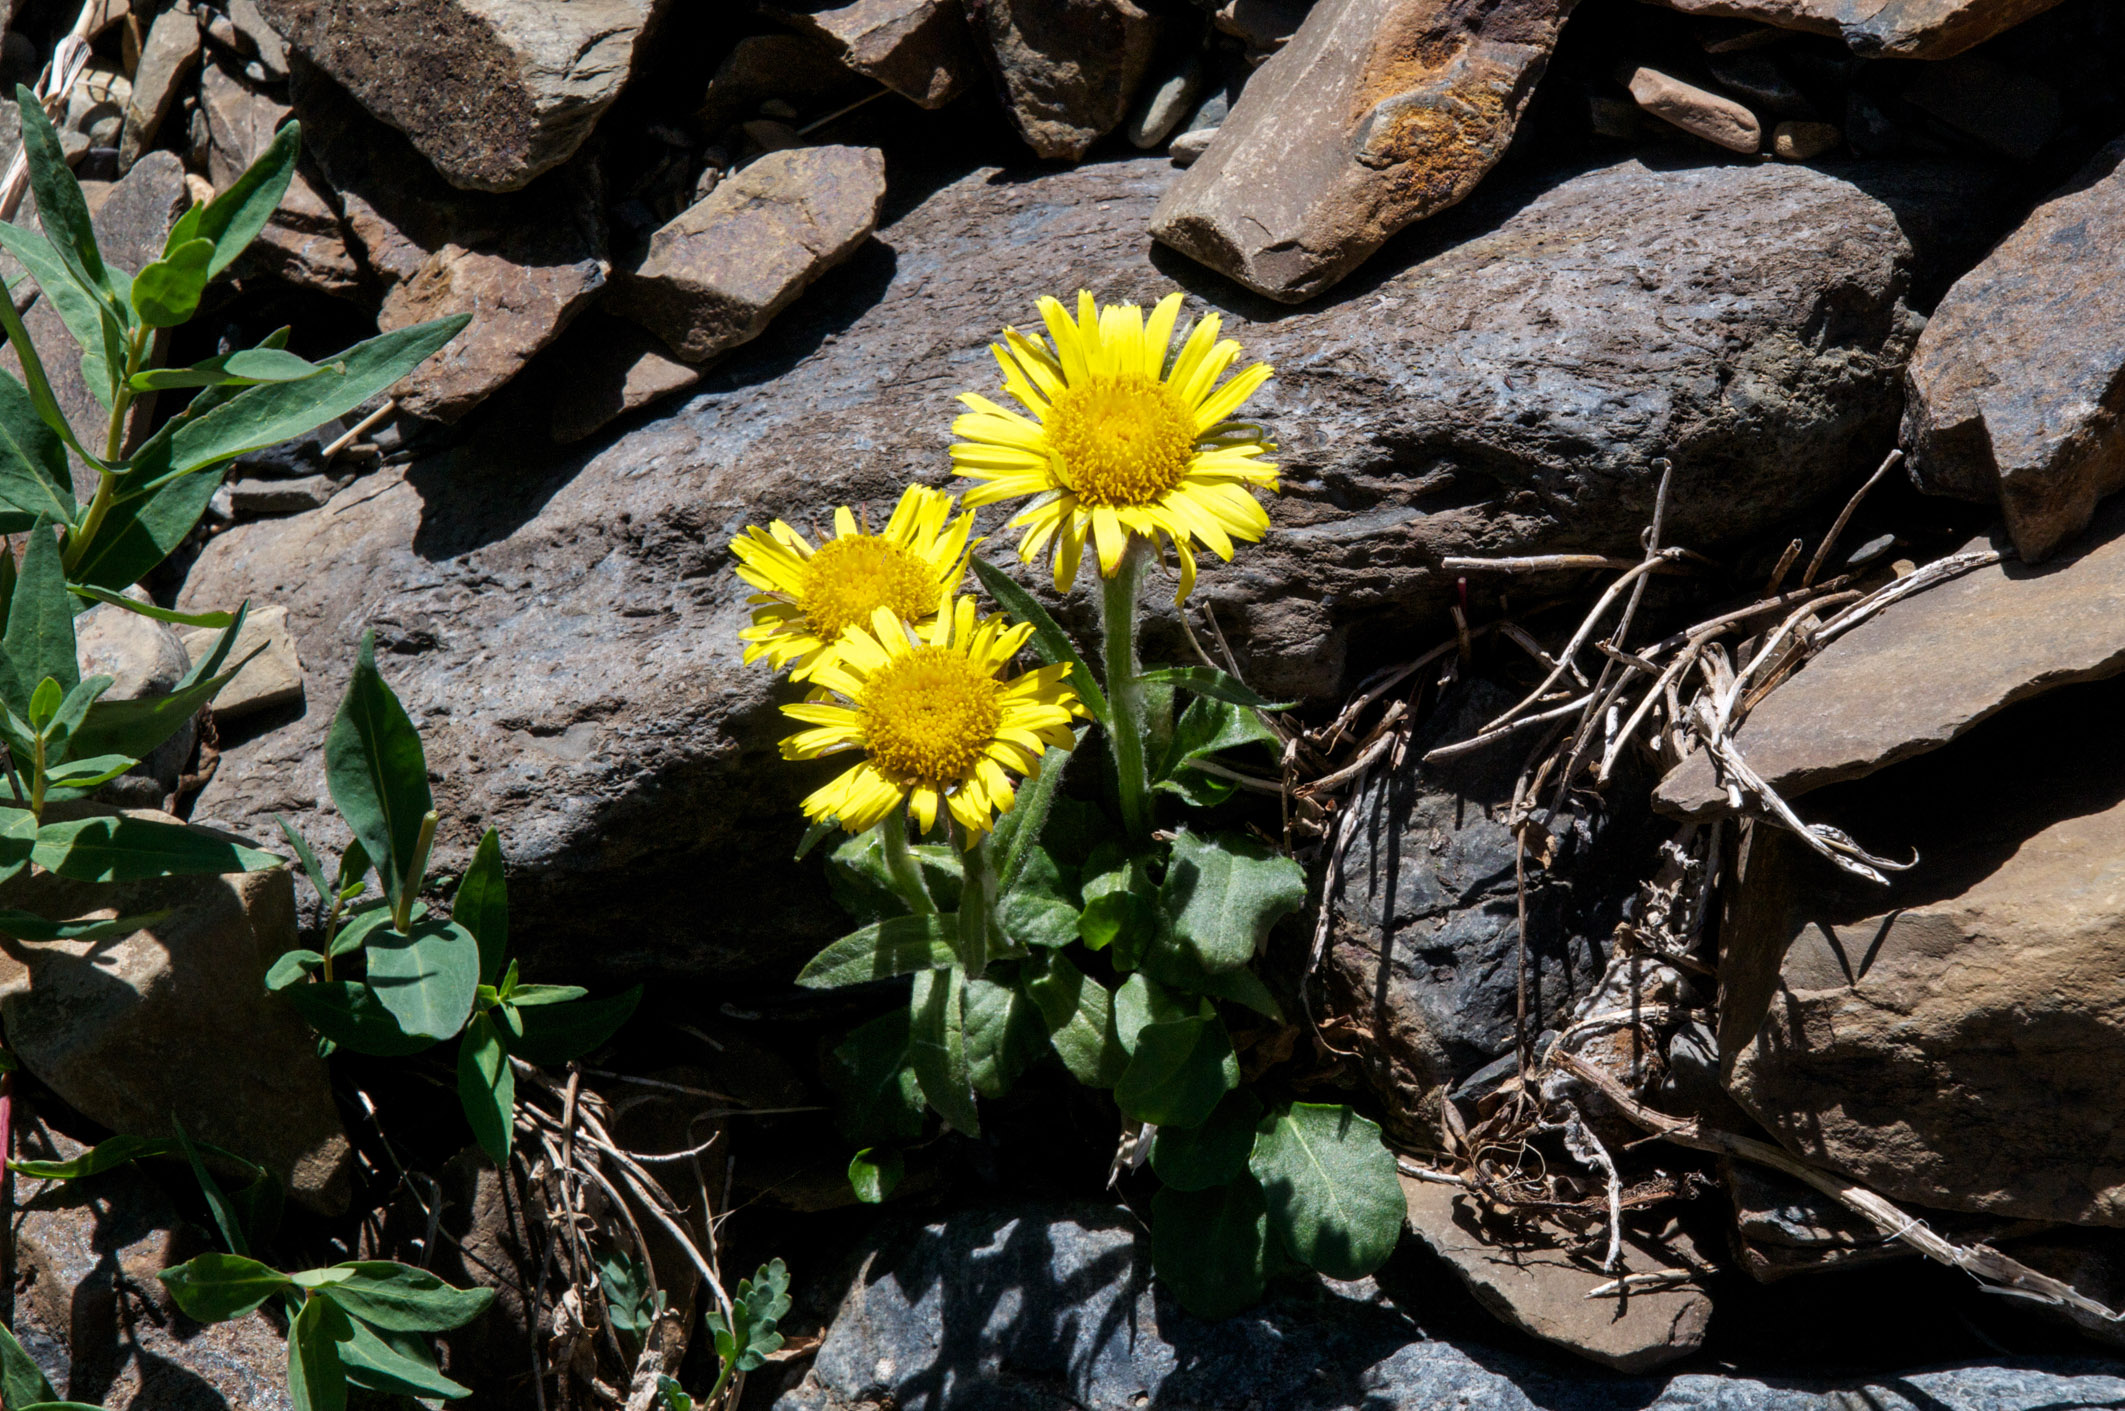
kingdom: Plantae
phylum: Tracheophyta
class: Magnoliopsida
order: Asterales
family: Asteraceae
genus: Tephroseris
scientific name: Tephroseris turczaninovii
